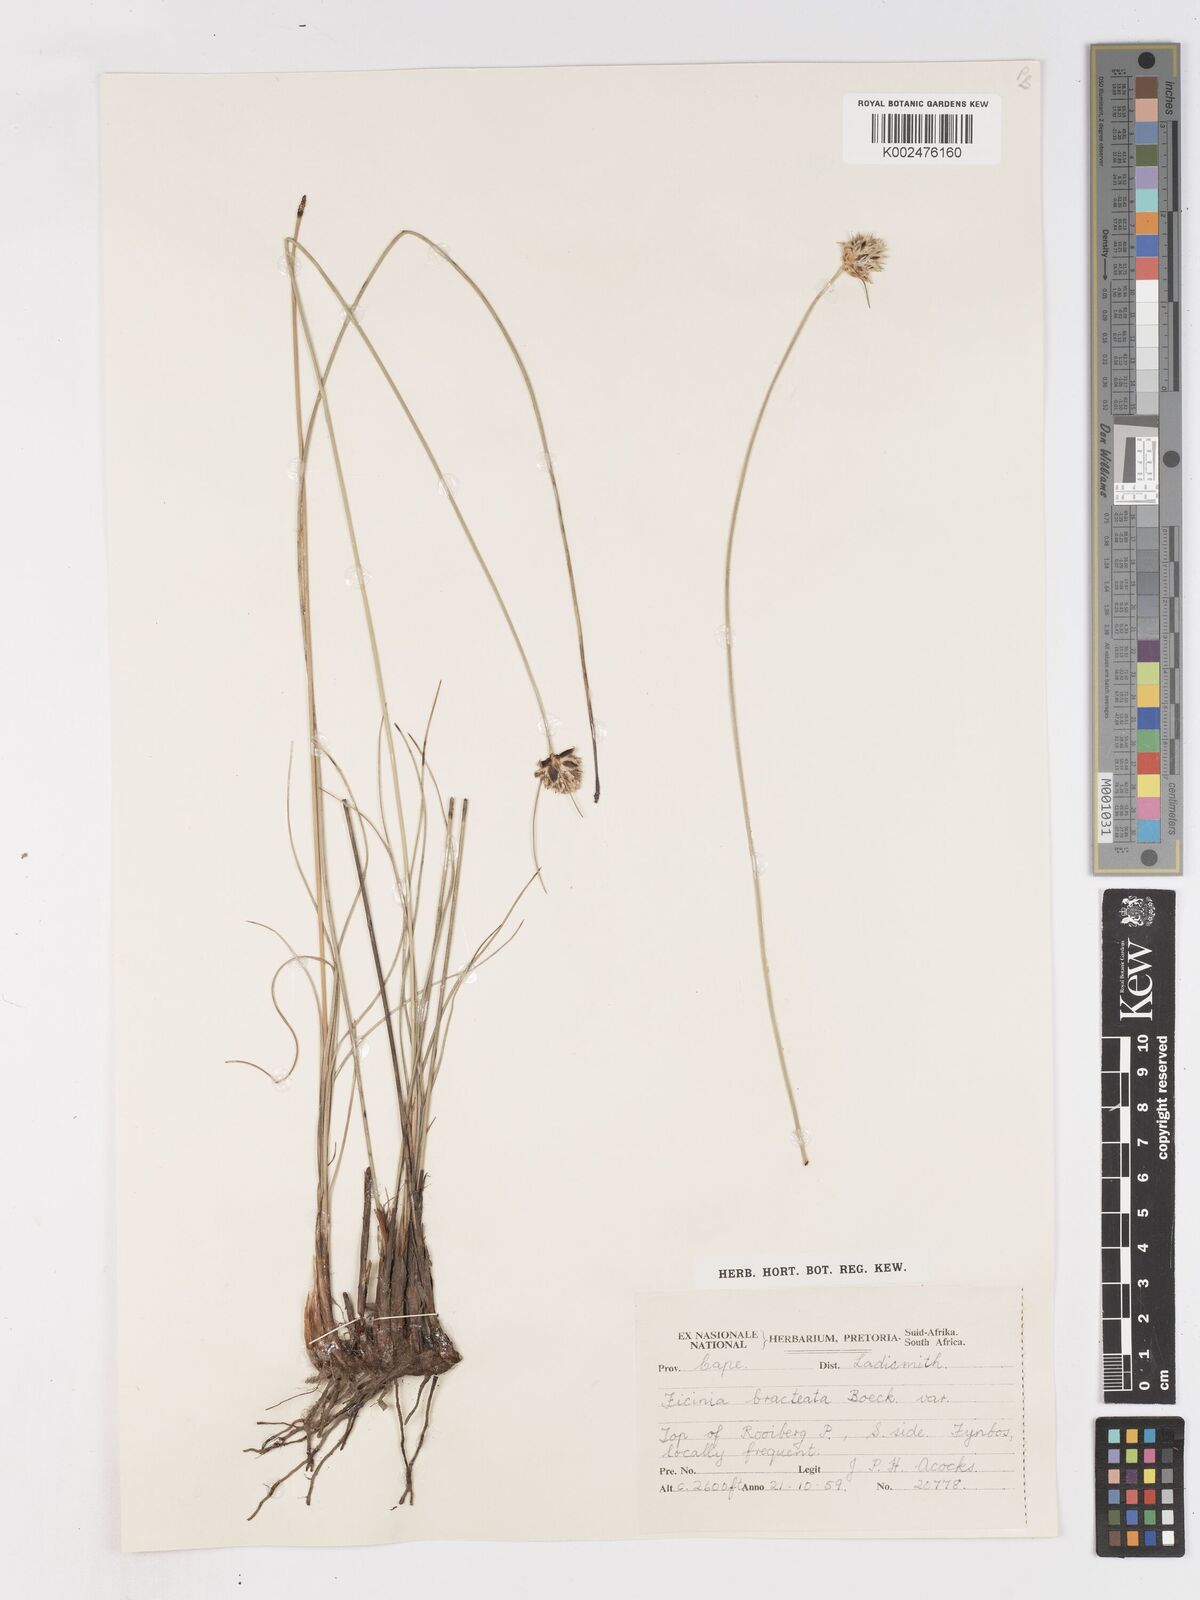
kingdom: Plantae
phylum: Tracheophyta
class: Liliopsida
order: Poales
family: Cyperaceae
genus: Ficinia
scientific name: Ficinia nigrescens
